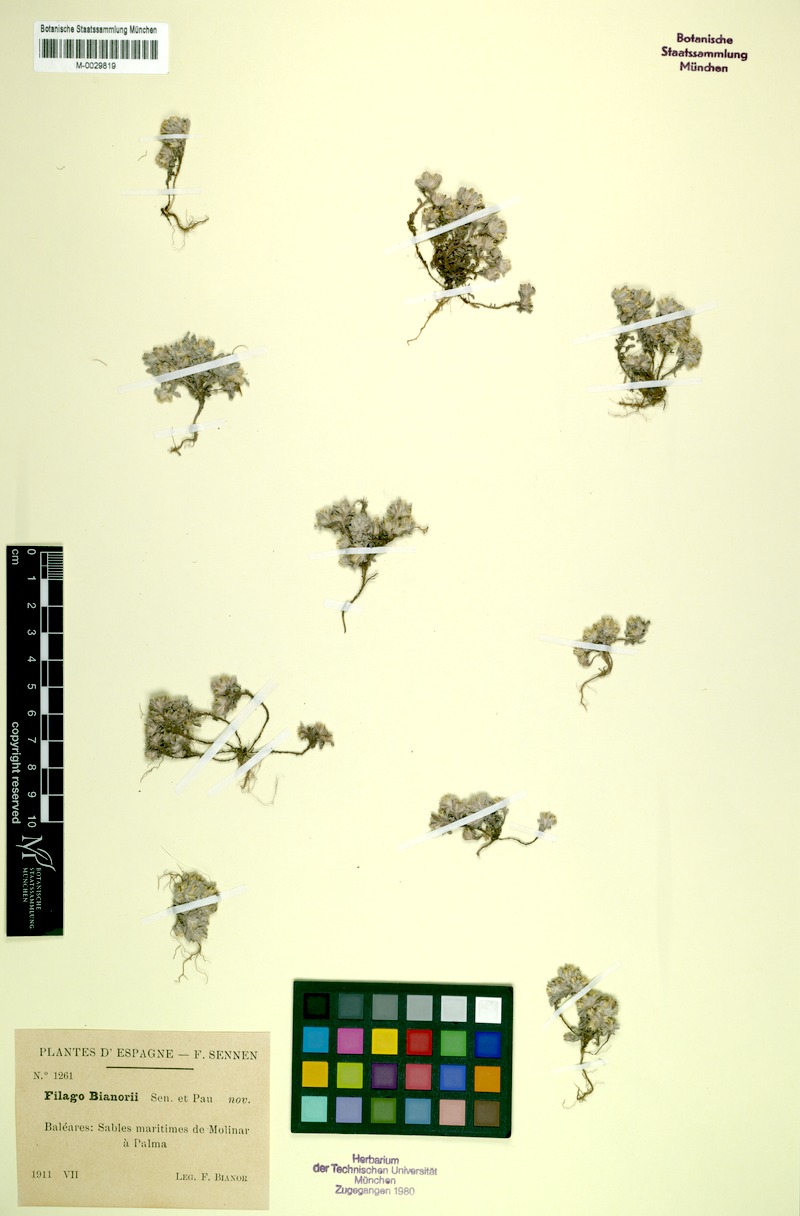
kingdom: Plantae
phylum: Tracheophyta
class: Magnoliopsida
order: Asterales
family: Asteraceae
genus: Filago
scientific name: Filago congesta
